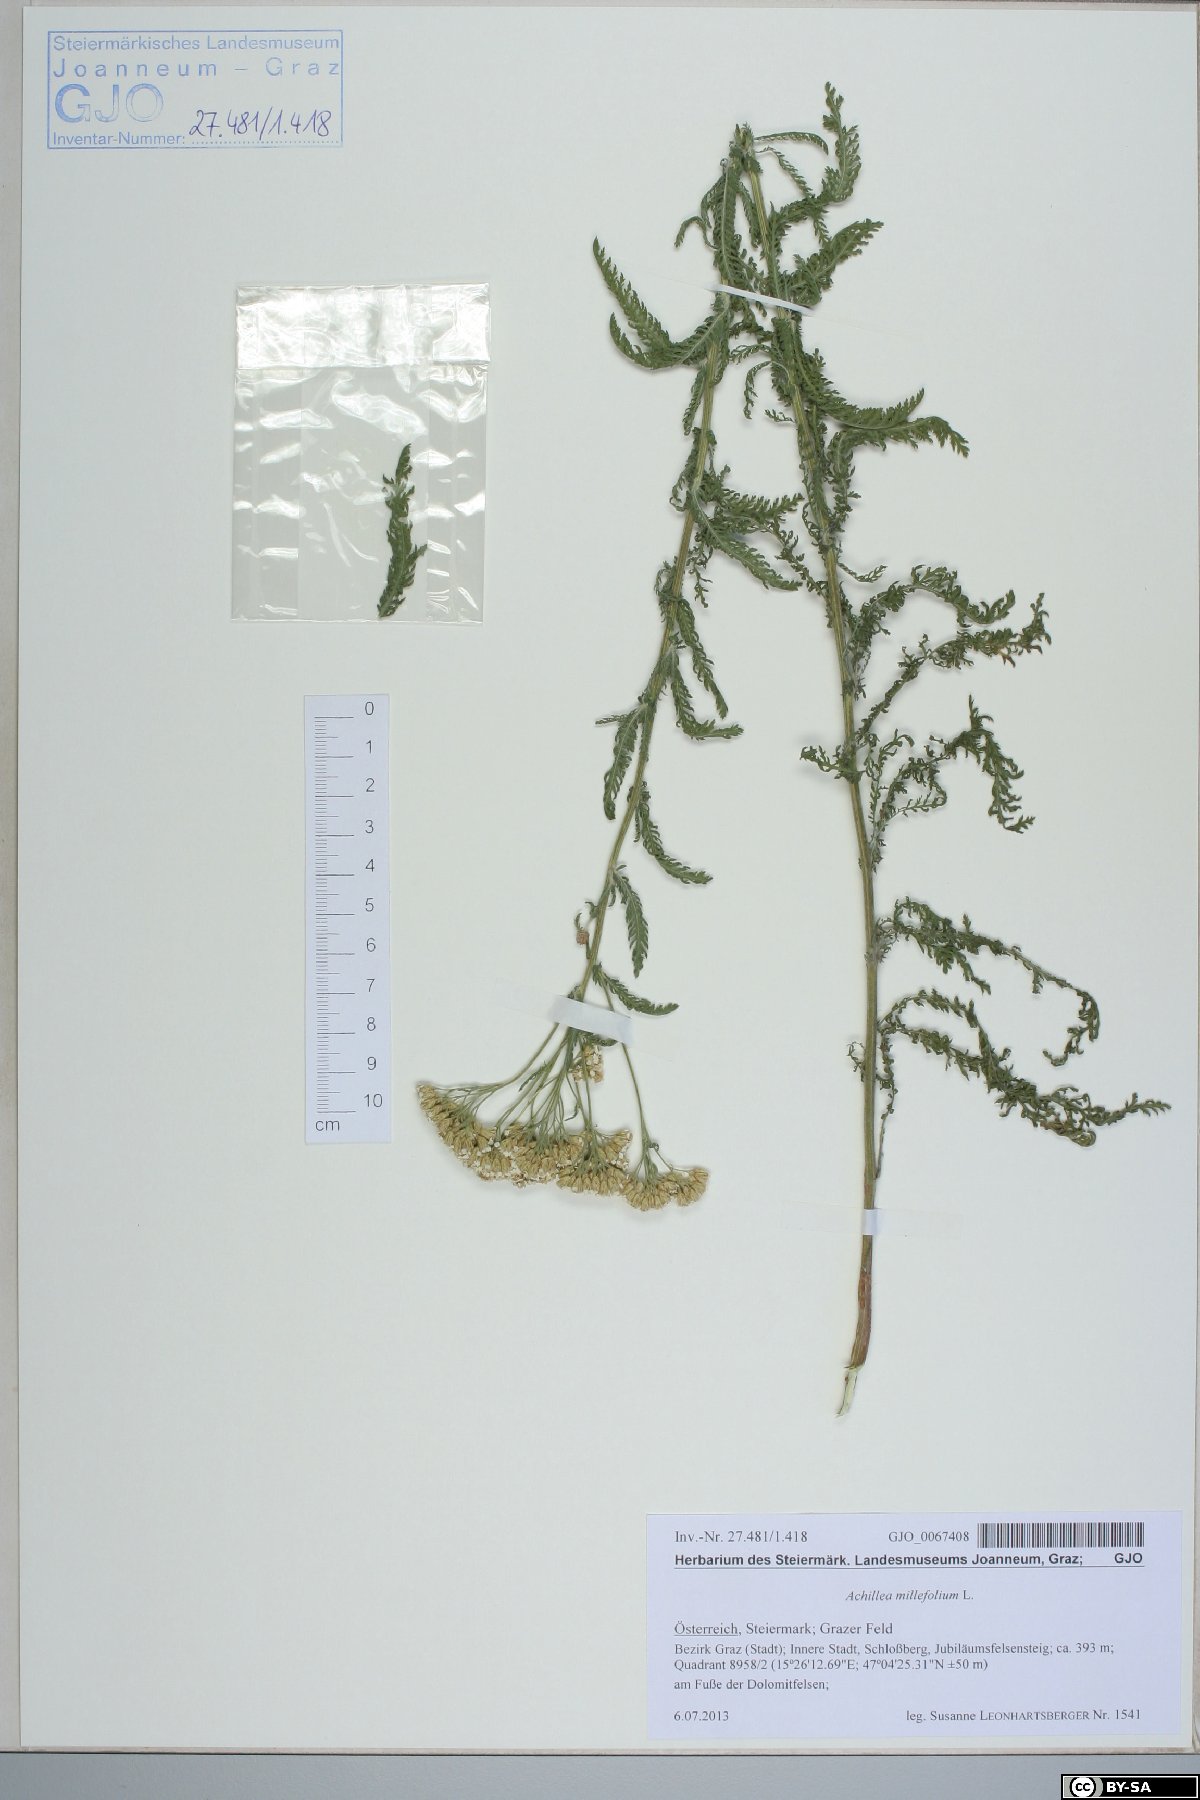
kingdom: Plantae
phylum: Tracheophyta
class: Magnoliopsida
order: Asterales
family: Asteraceae
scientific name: Asteraceae
